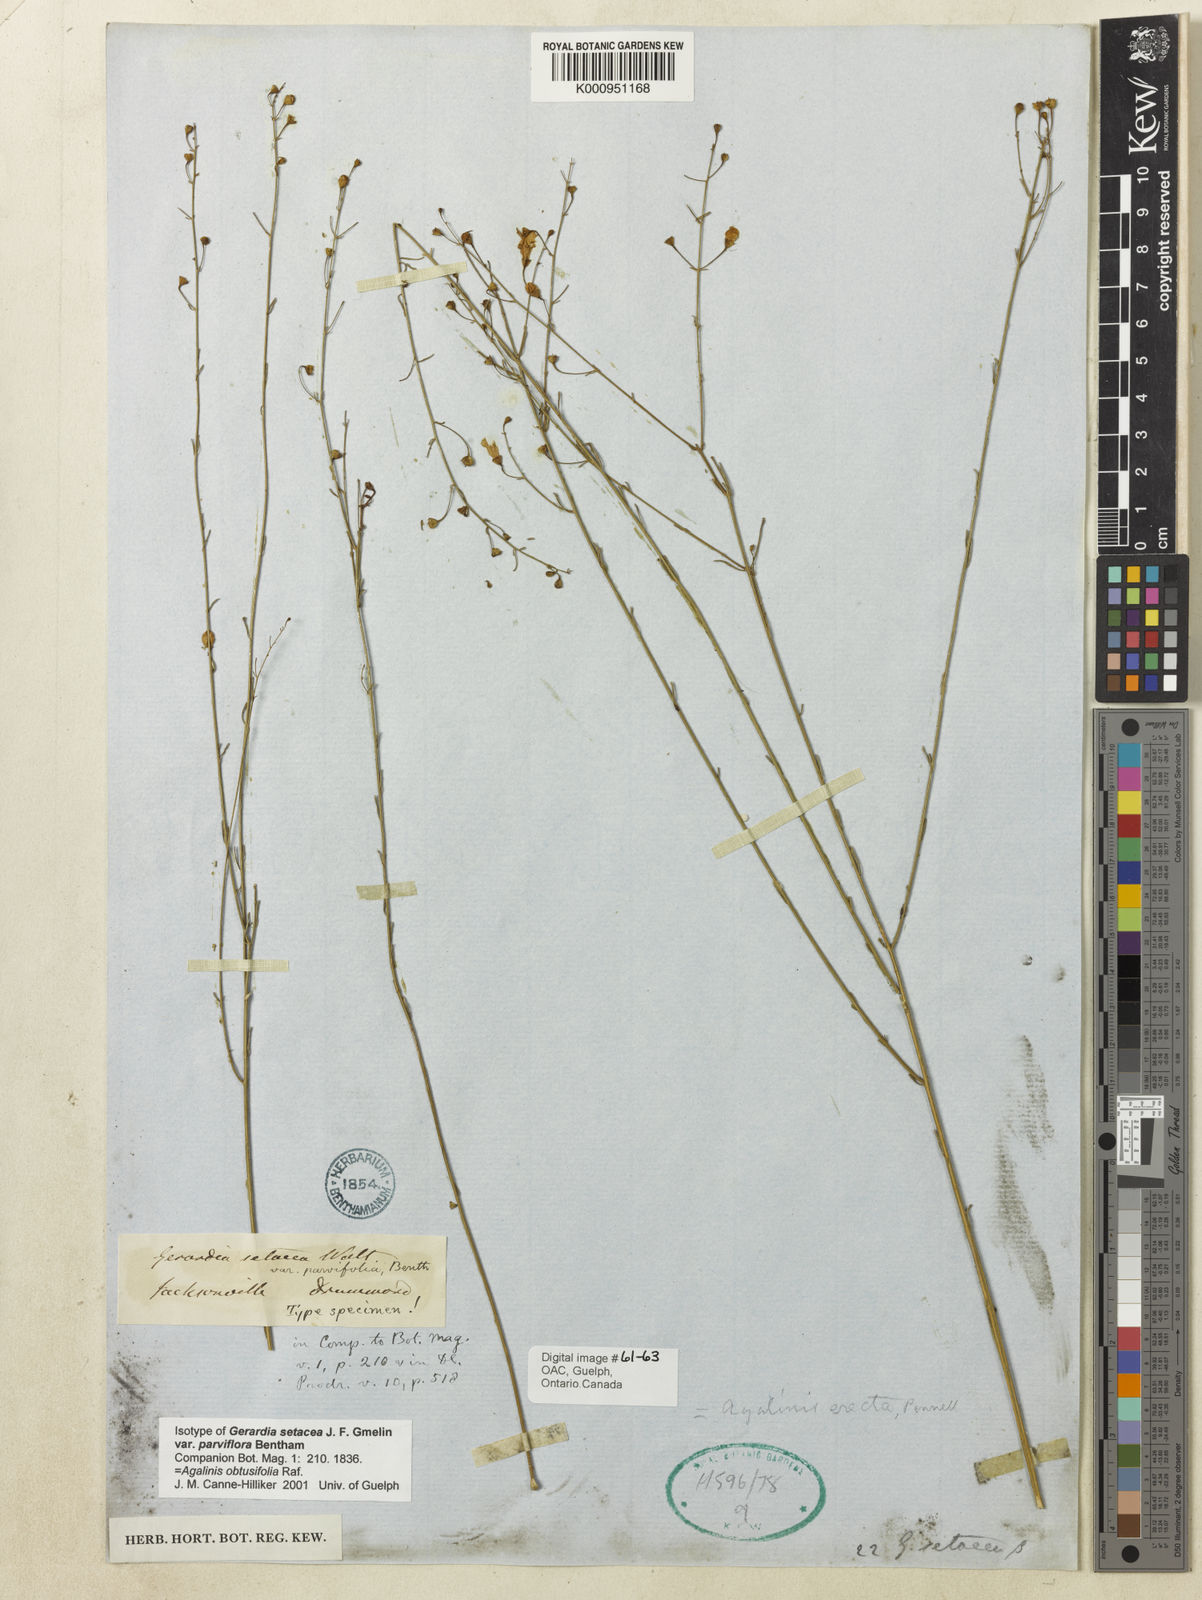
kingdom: Plantae
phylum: Tracheophyta
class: Magnoliopsida
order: Lamiales
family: Orobanchaceae
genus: Agalinis
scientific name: Agalinis obtusifolia
